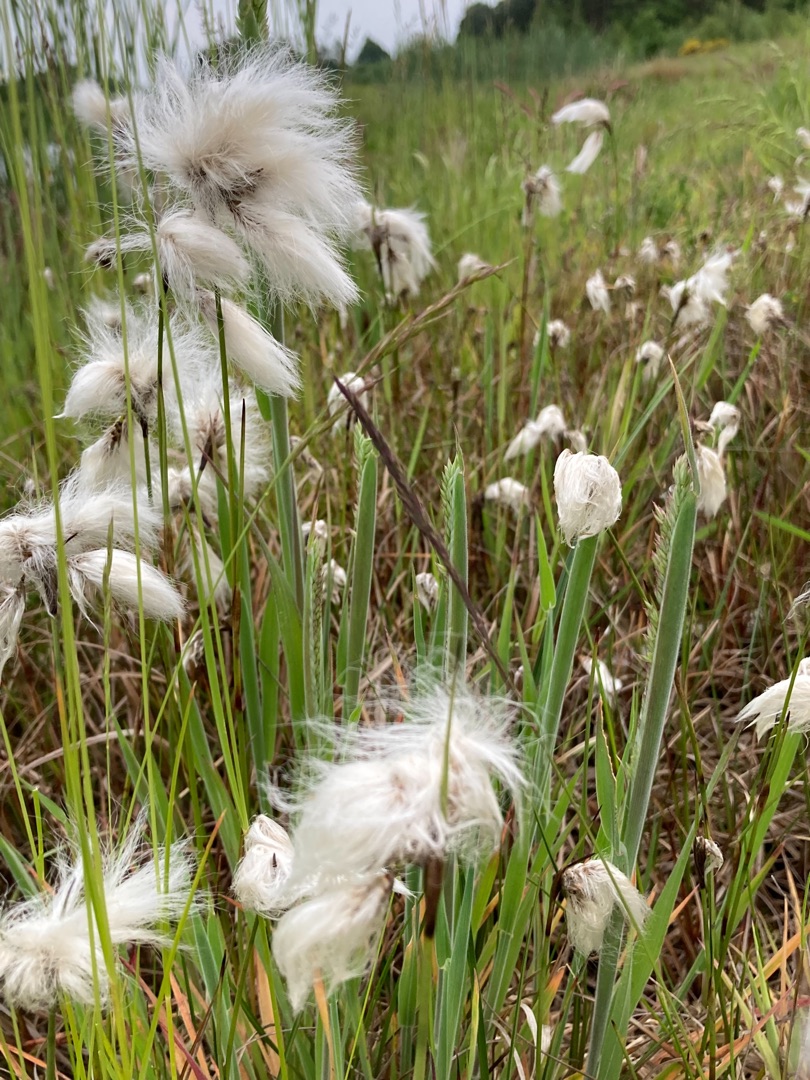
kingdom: Plantae
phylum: Tracheophyta
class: Liliopsida
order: Poales
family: Cyperaceae
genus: Eriophorum
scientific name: Eriophorum angustifolium
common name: Smalbladet kæruld
